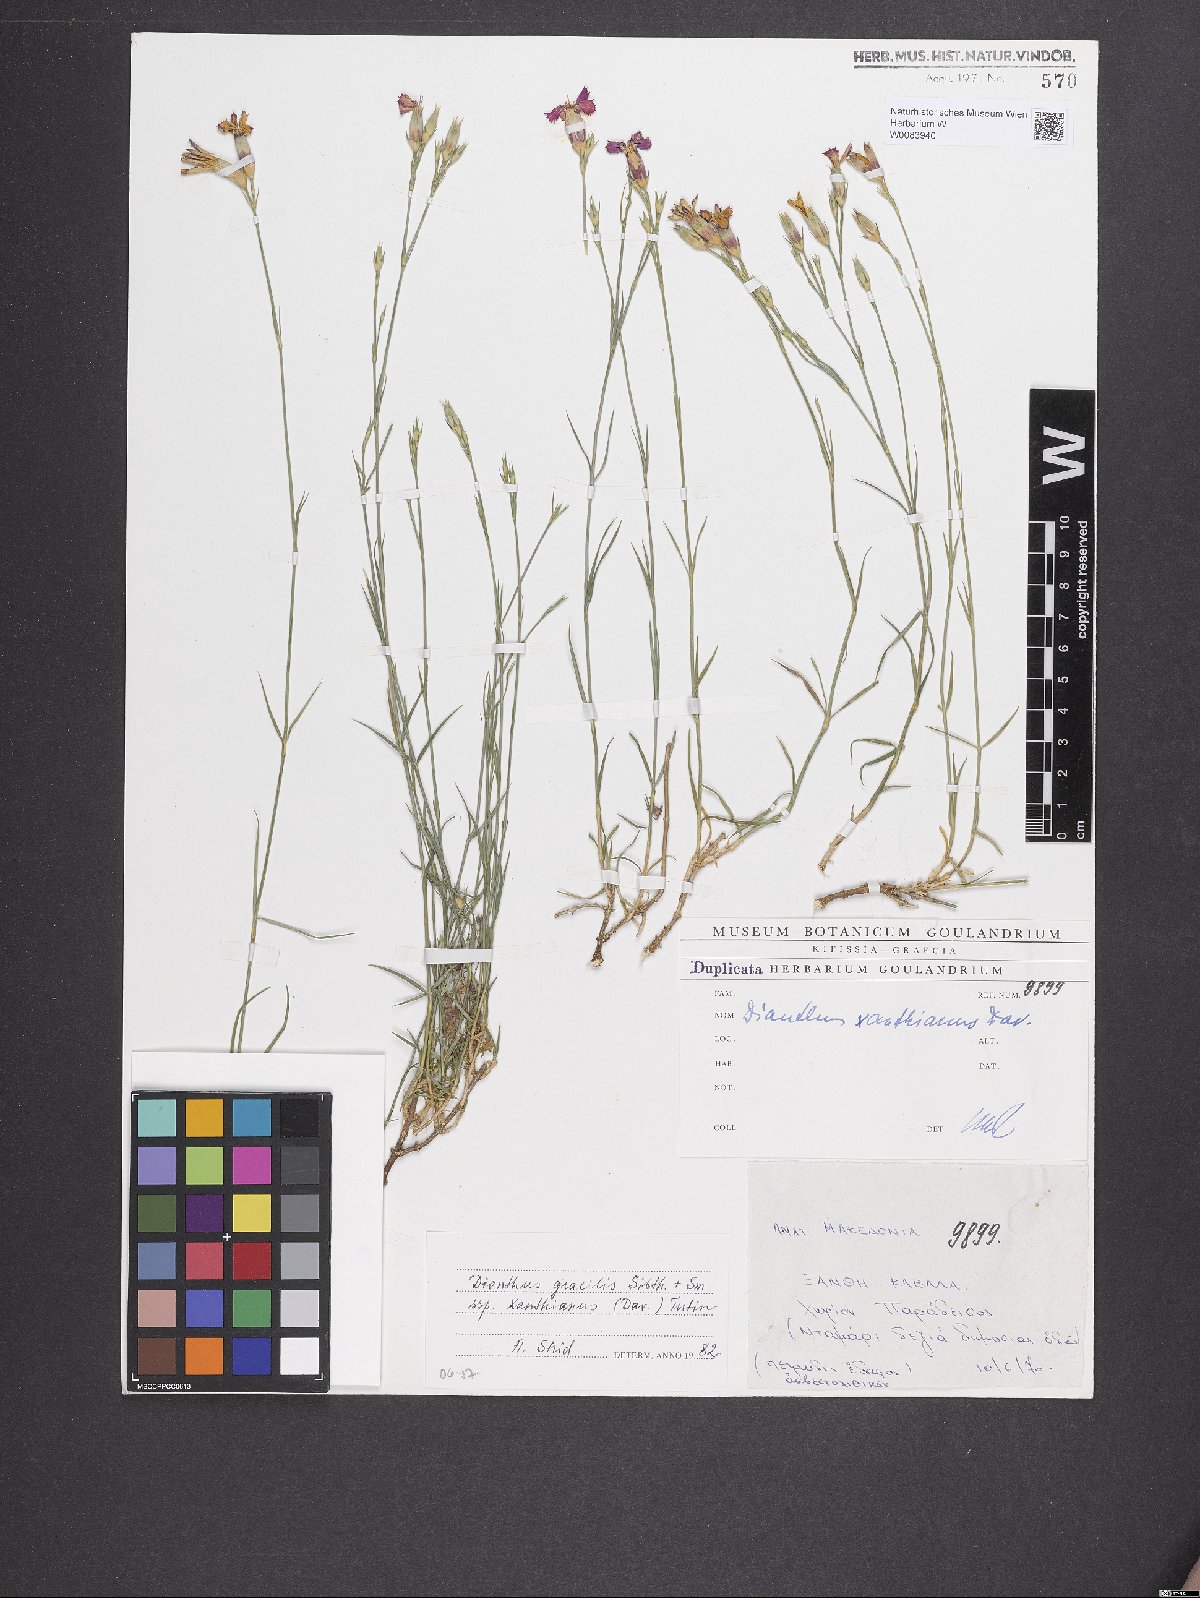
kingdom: Plantae
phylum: Tracheophyta
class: Magnoliopsida
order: Caryophyllales
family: Caryophyllaceae
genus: Dianthus
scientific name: Dianthus gracilis
